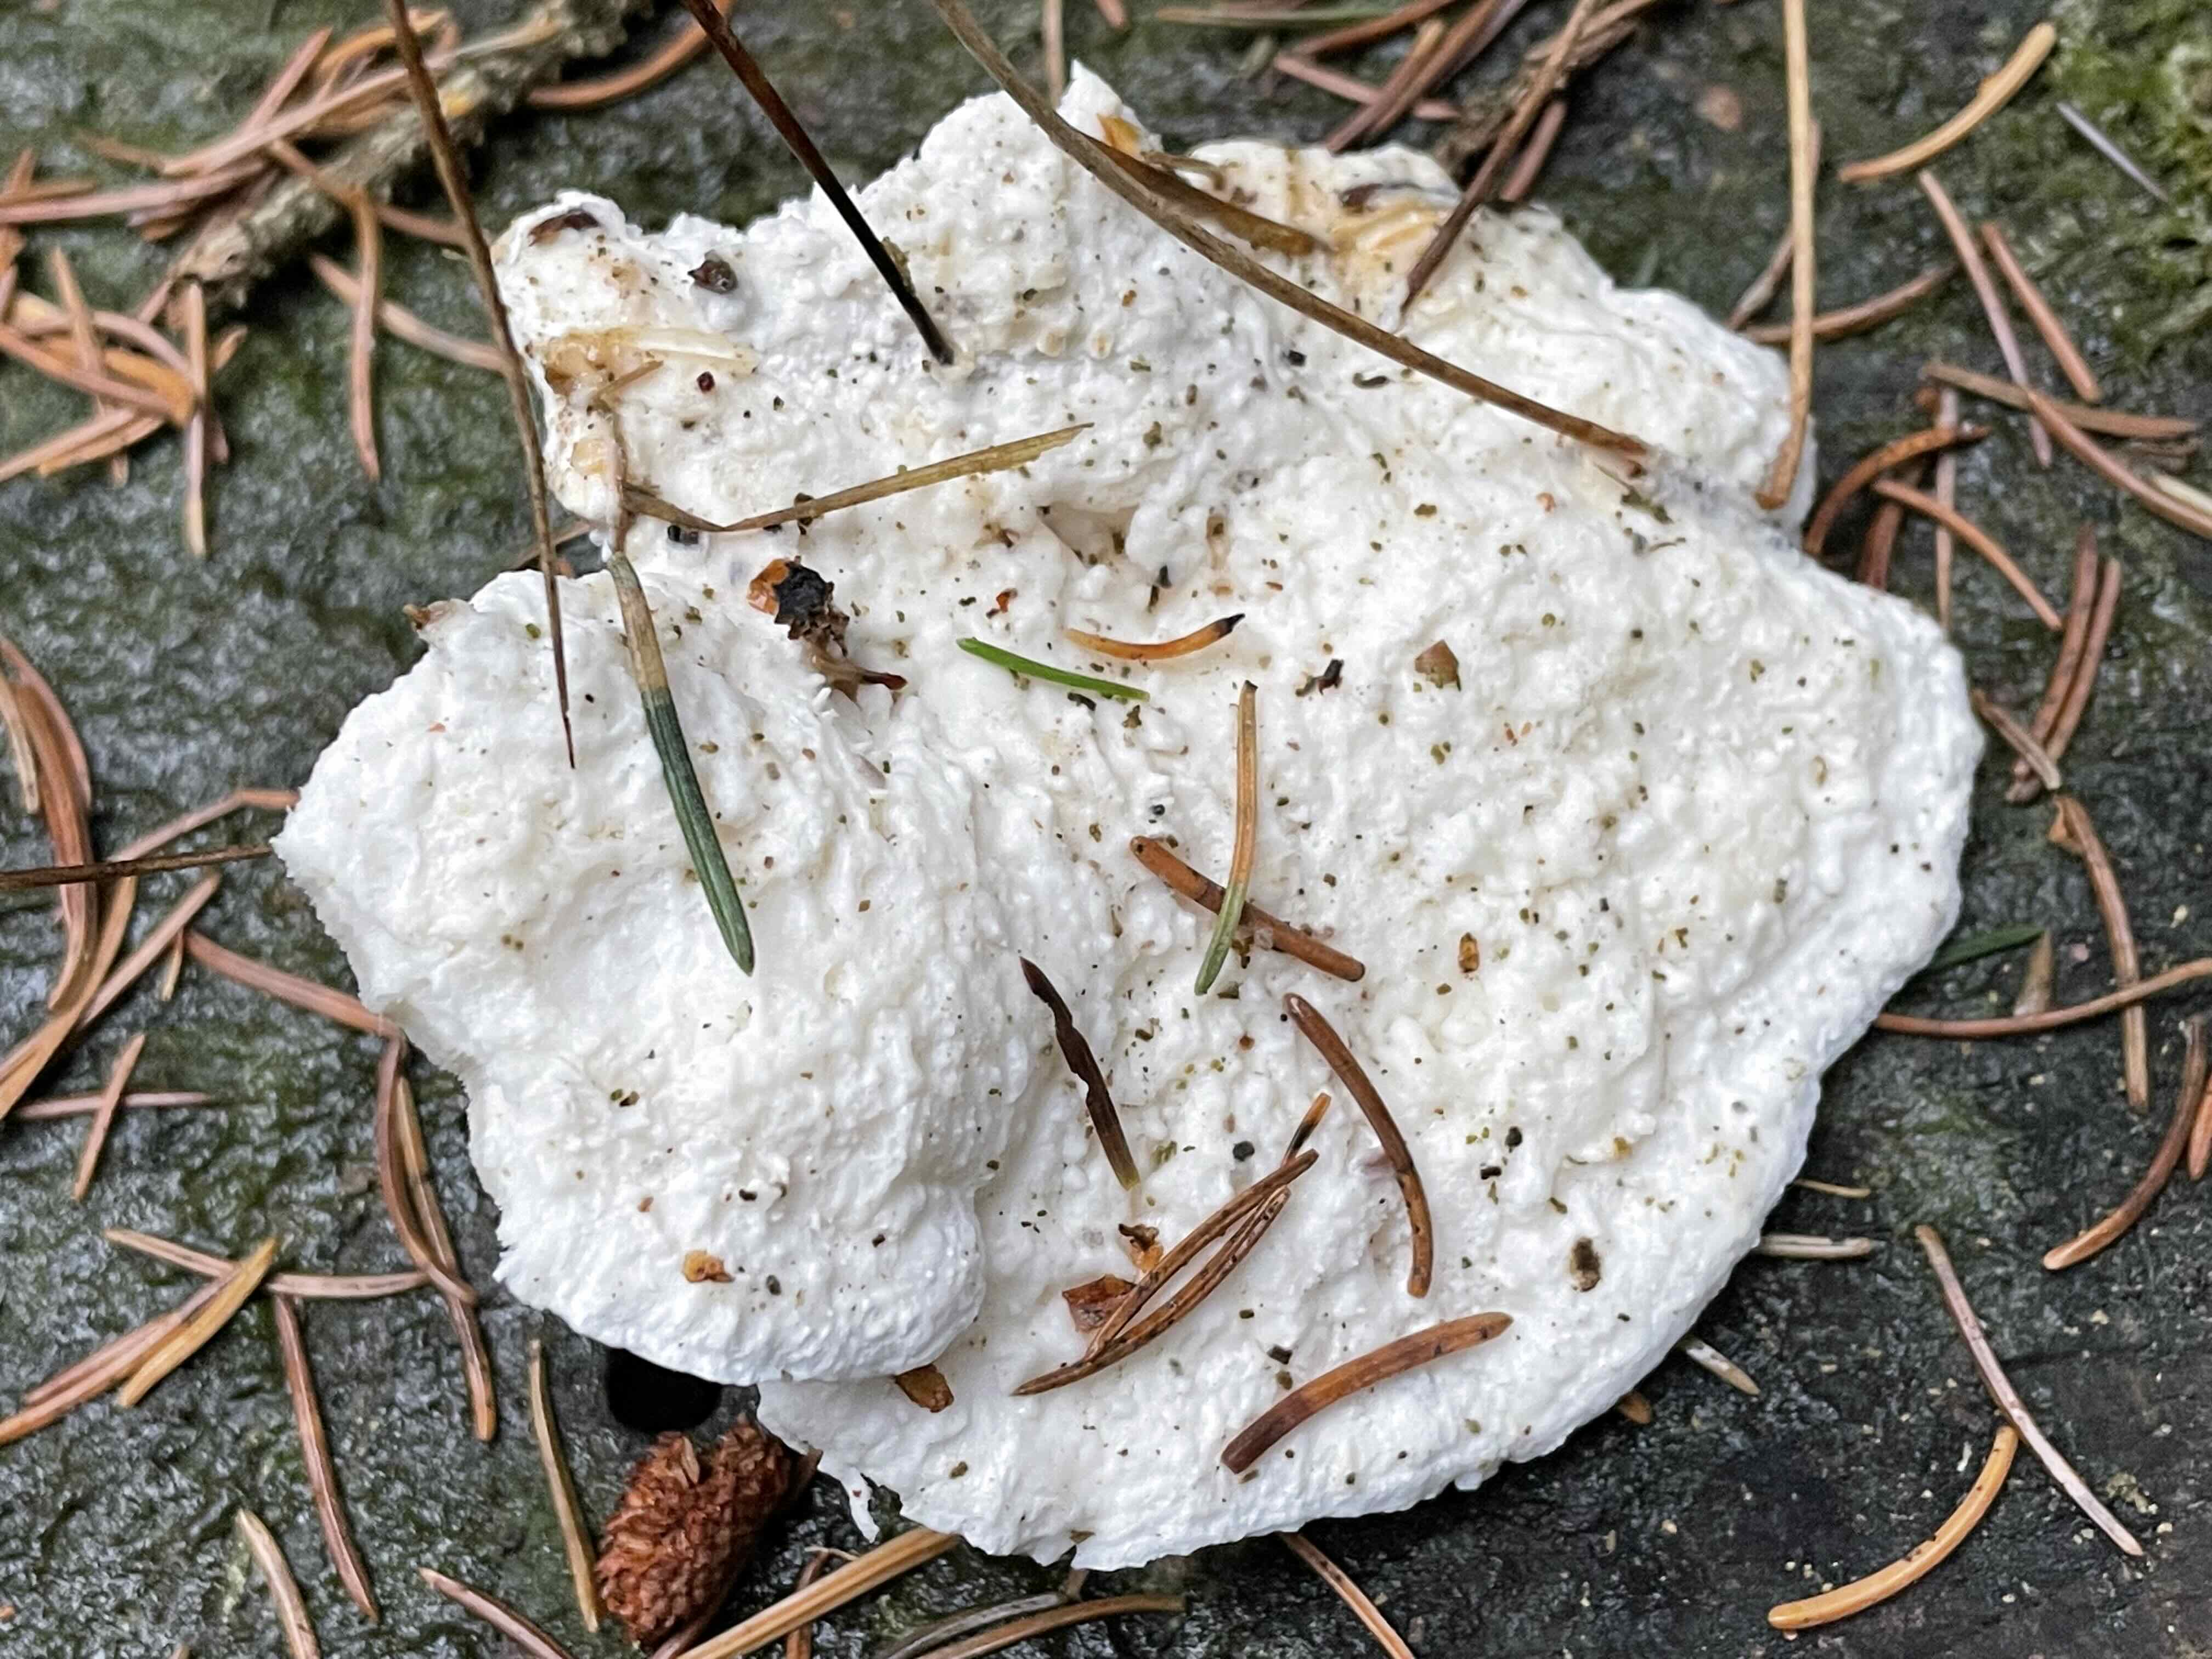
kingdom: Fungi
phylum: Basidiomycota
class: Agaricomycetes
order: Polyporales
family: Fomitopsidaceae
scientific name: Fomitopsidaceae
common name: hovporesvampfamilien
